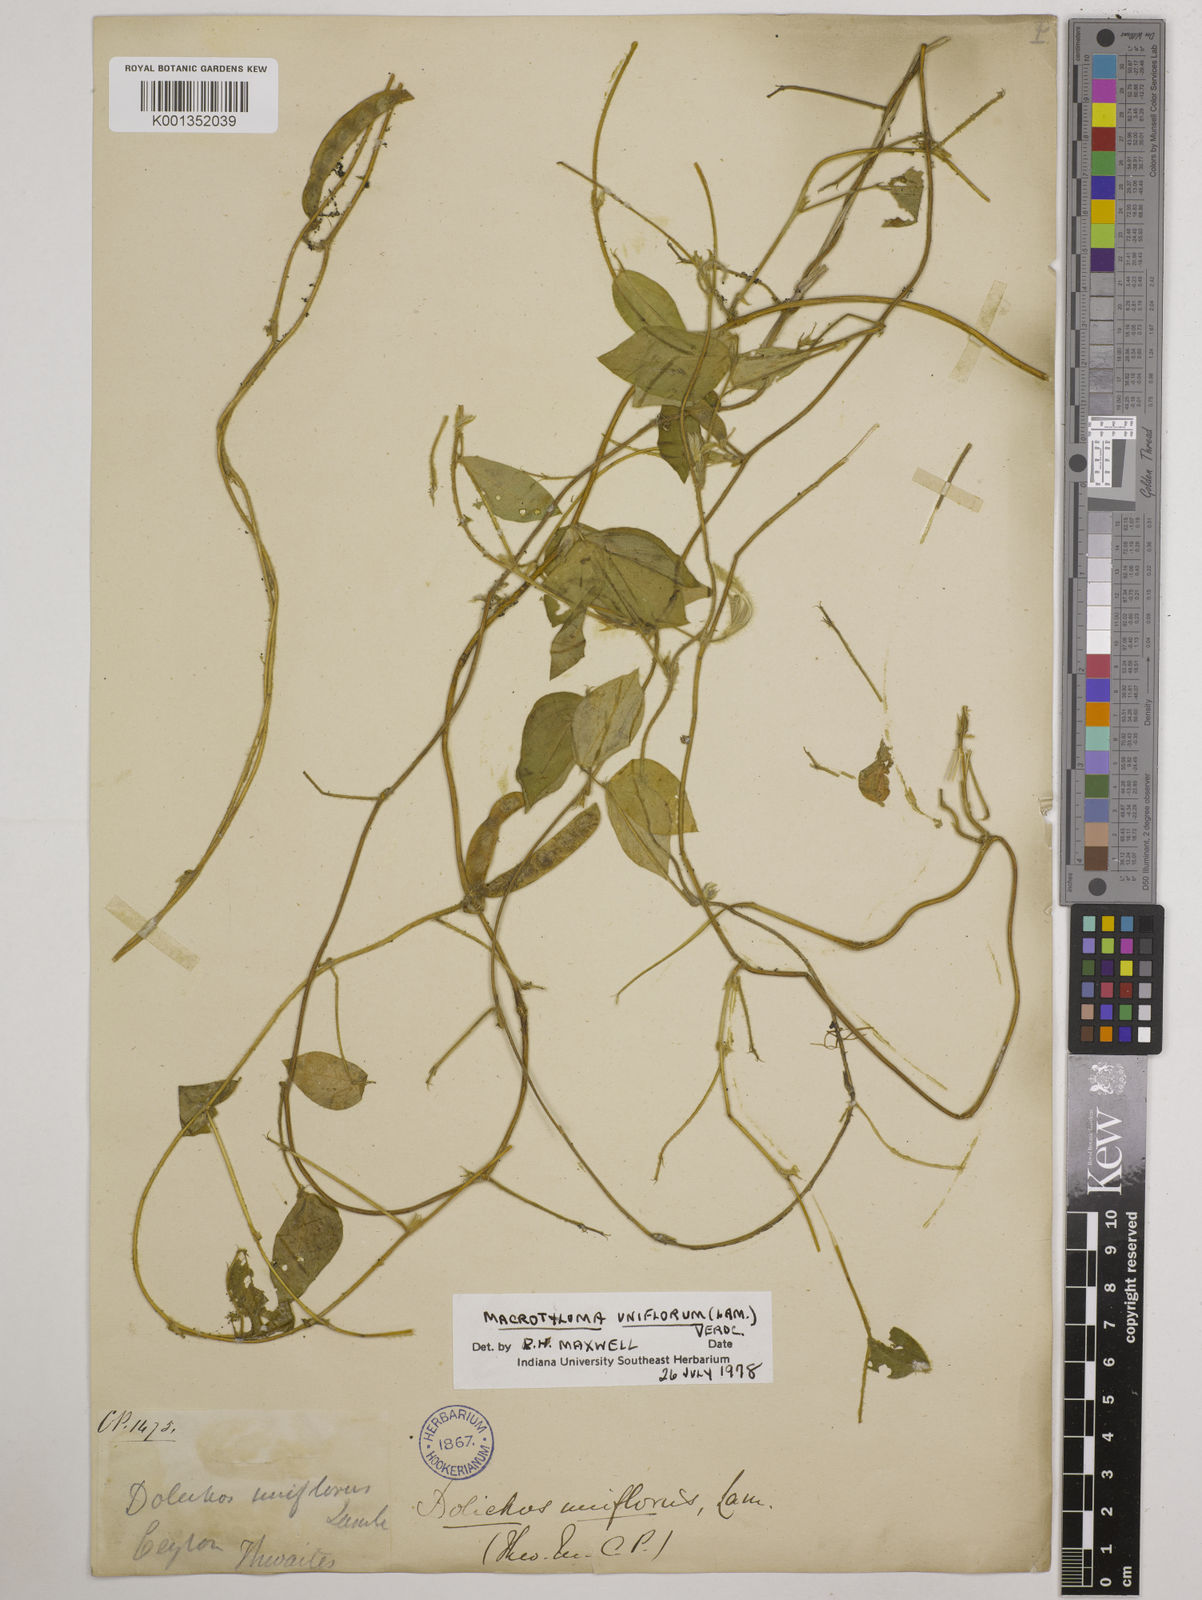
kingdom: Plantae
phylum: Tracheophyta
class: Magnoliopsida
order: Fabales
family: Fabaceae
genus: Macrotyloma
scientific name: Macrotyloma uniflorum
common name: Horse gram
